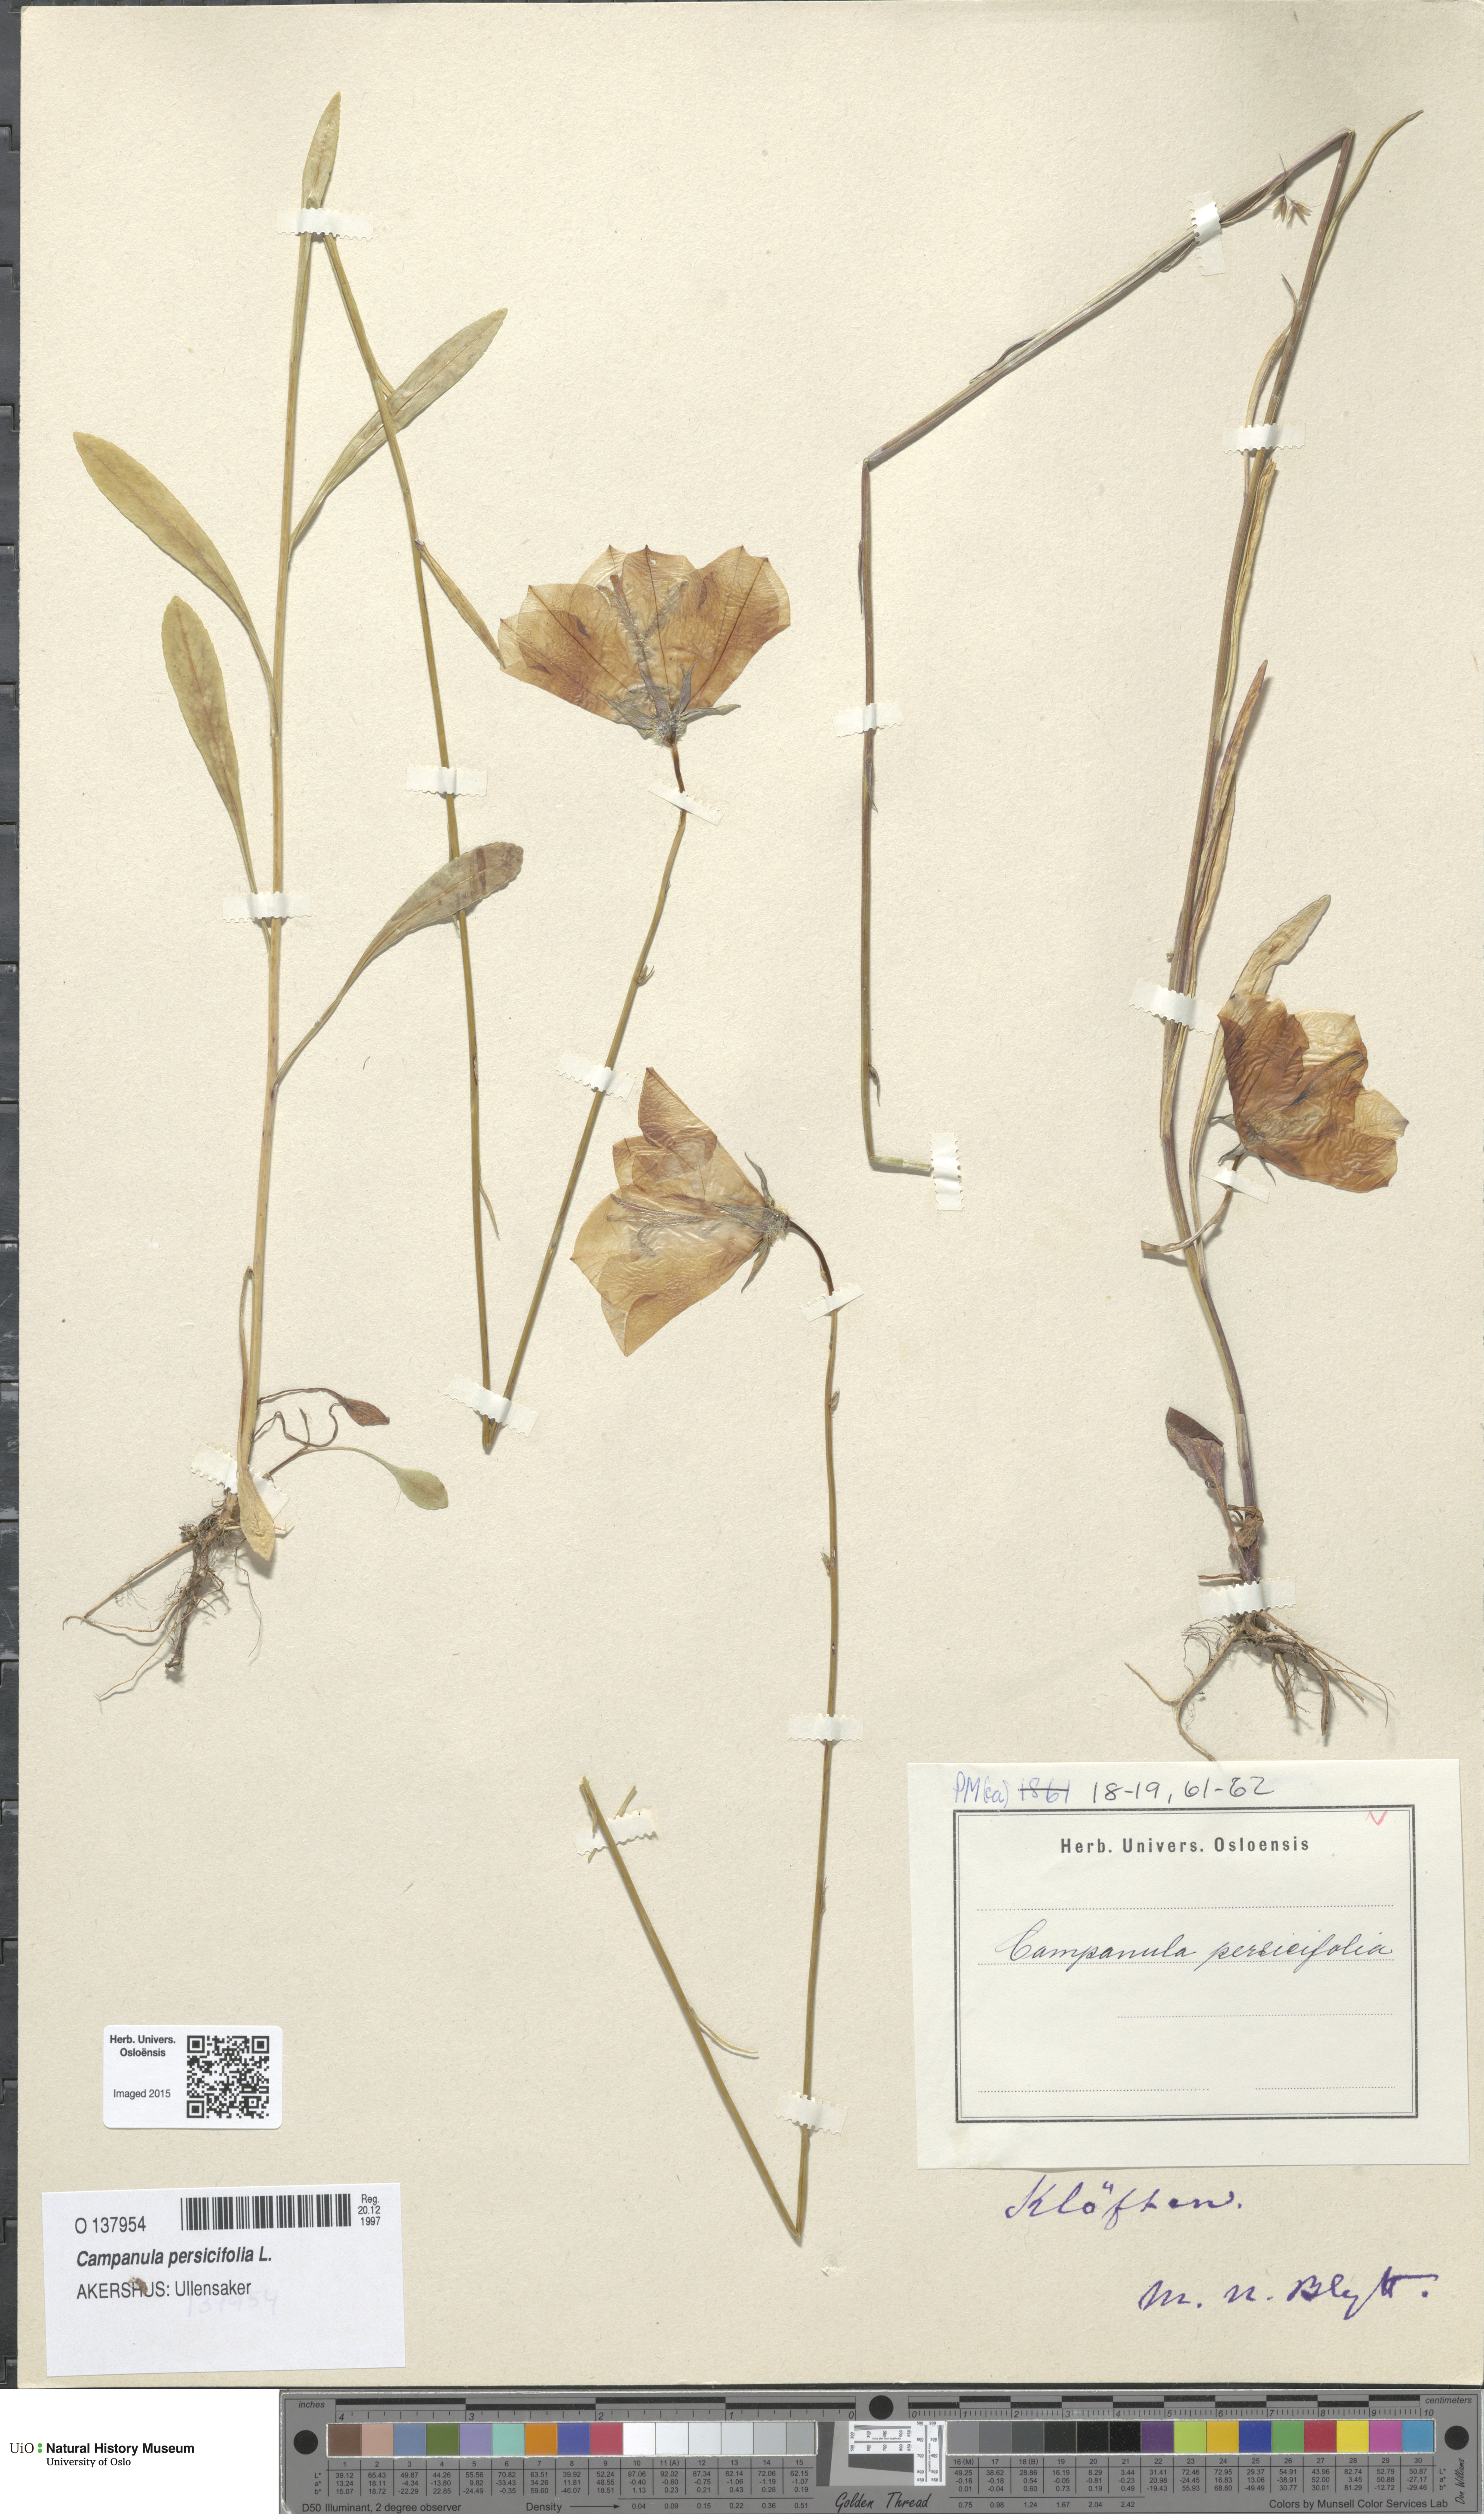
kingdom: Plantae
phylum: Tracheophyta
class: Magnoliopsida
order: Asterales
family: Campanulaceae
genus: Campanula
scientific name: Campanula persicifolia
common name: Peach-leaved bellflower
